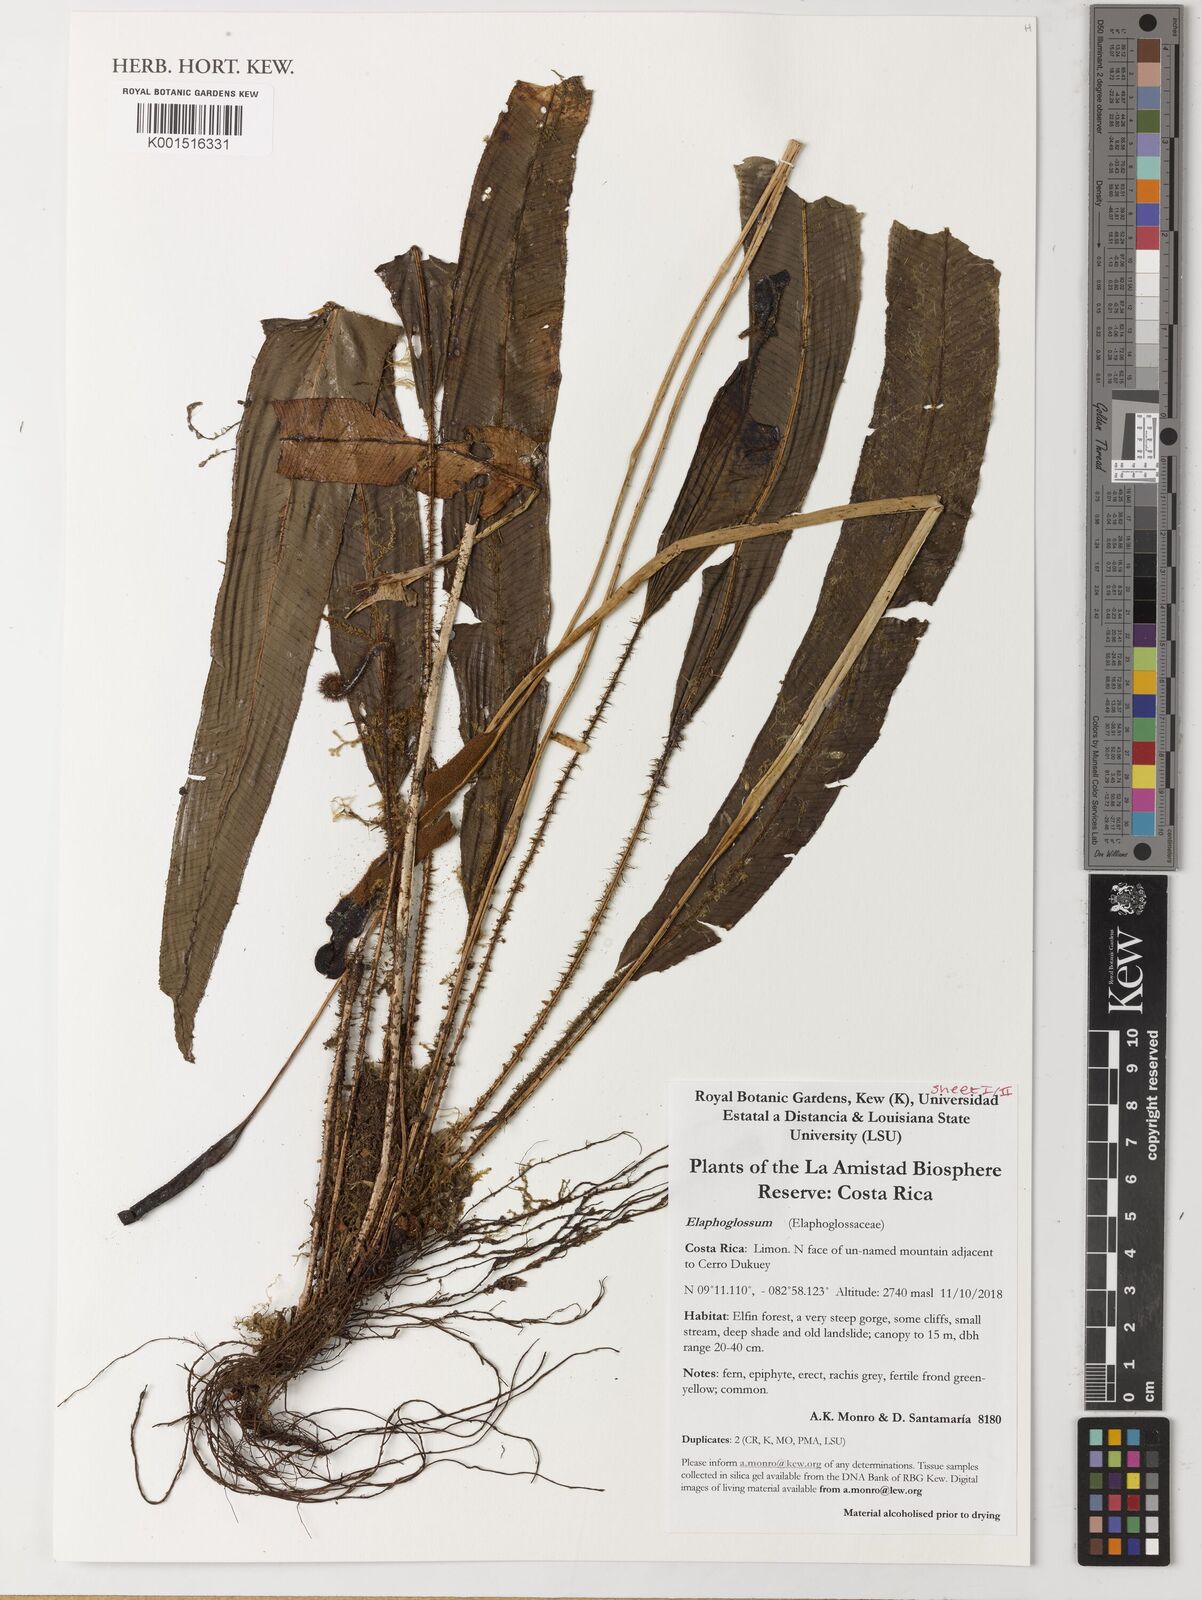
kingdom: Plantae
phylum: Tracheophyta
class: Polypodiopsida
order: Polypodiales
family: Dryopteridaceae
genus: Elaphoglossum
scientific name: Elaphoglossum
